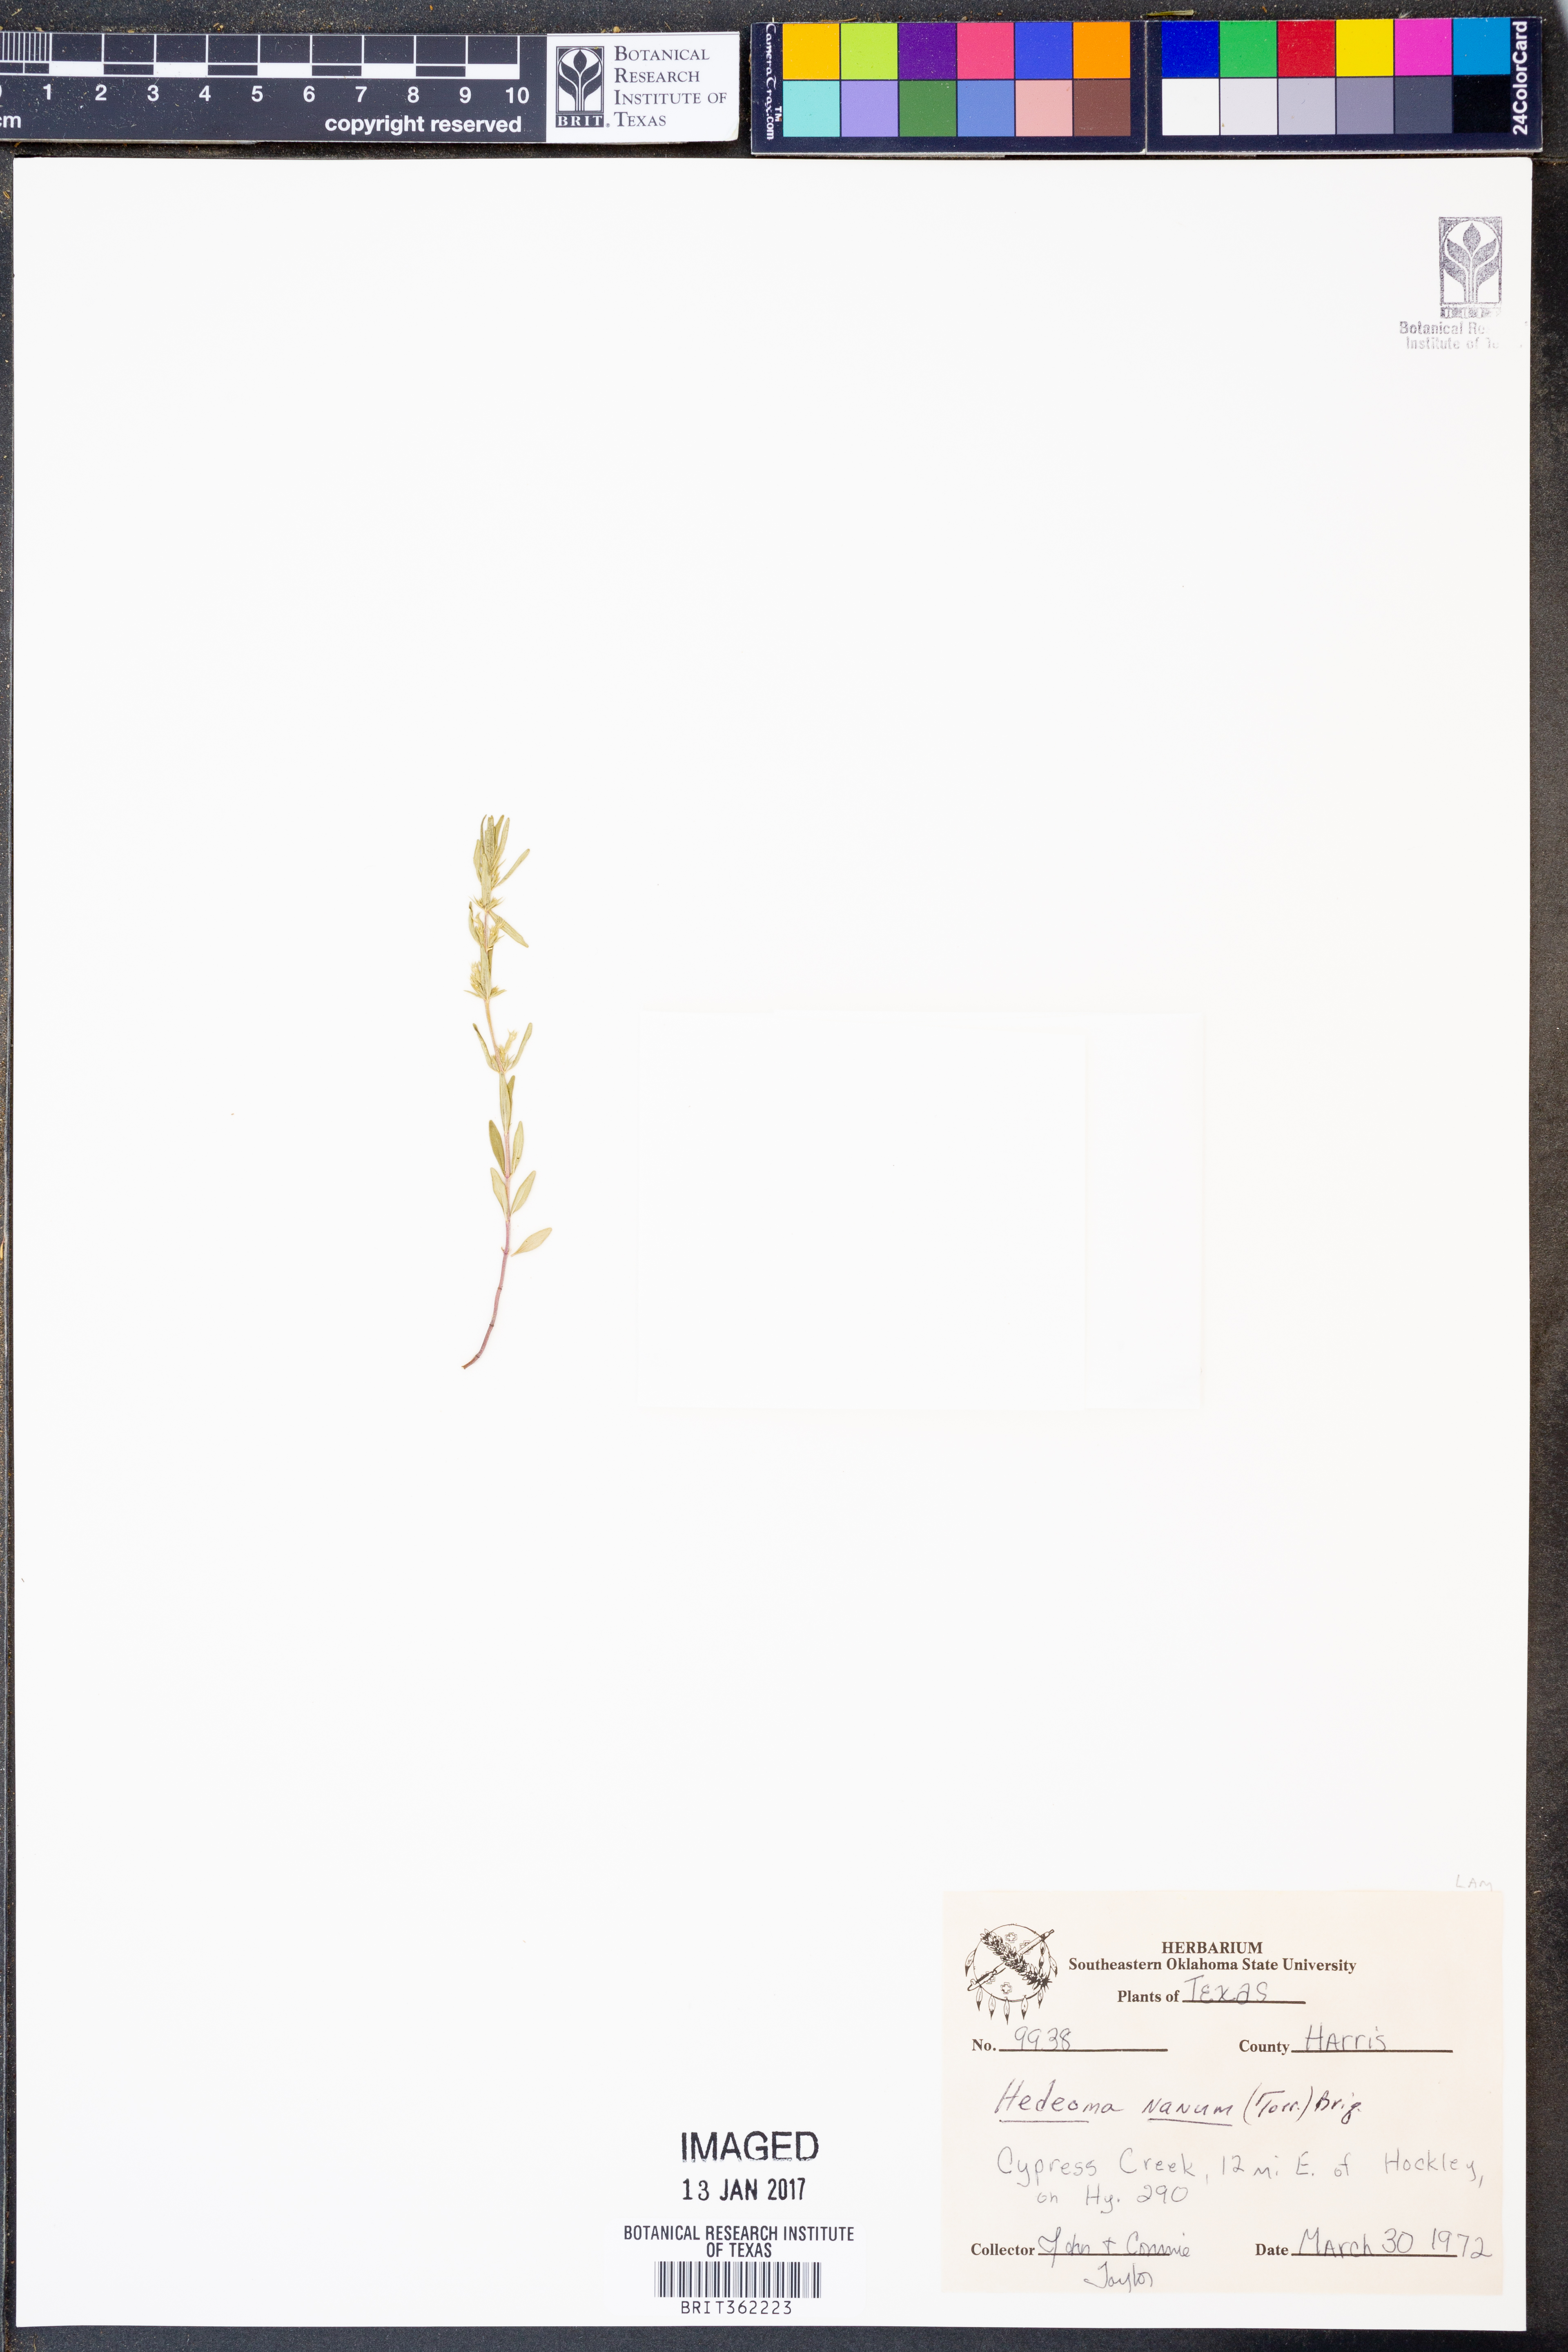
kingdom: Plantae
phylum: Tracheophyta
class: Magnoliopsida
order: Lamiales
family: Lamiaceae
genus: Hedeoma
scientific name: Hedeoma nana
